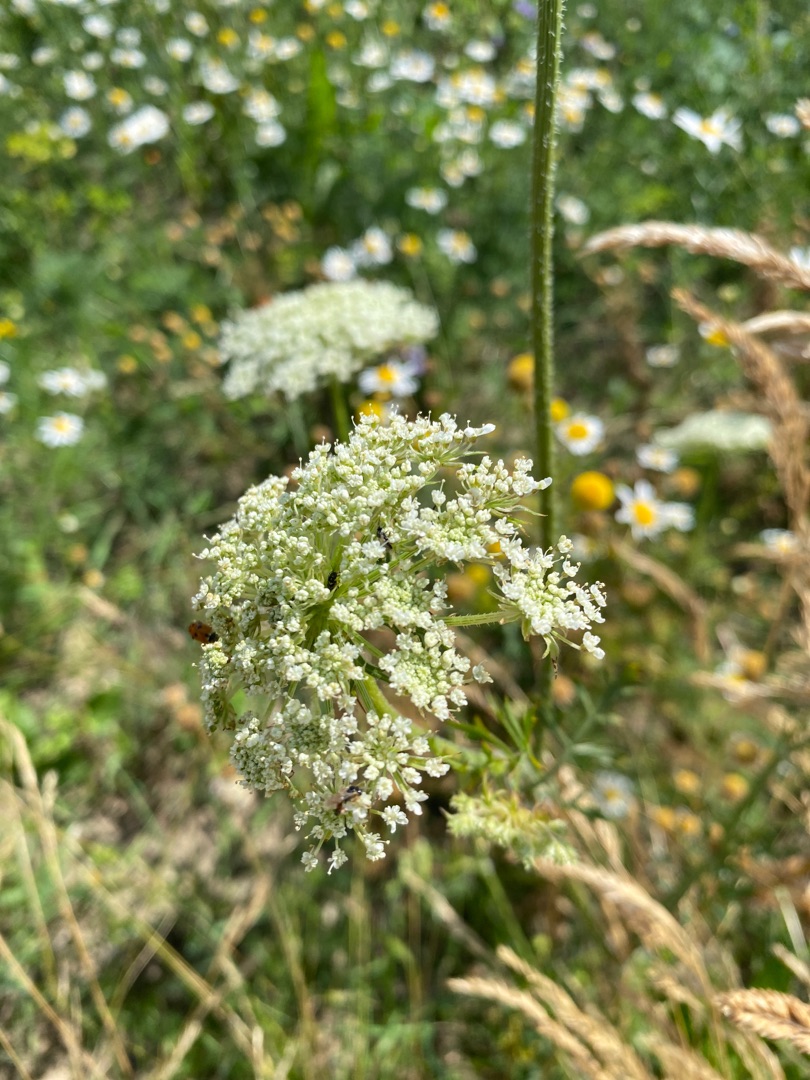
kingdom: Plantae
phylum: Tracheophyta
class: Magnoliopsida
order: Apiales
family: Apiaceae
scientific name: Apiaceae
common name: Skærmplantefamilien
